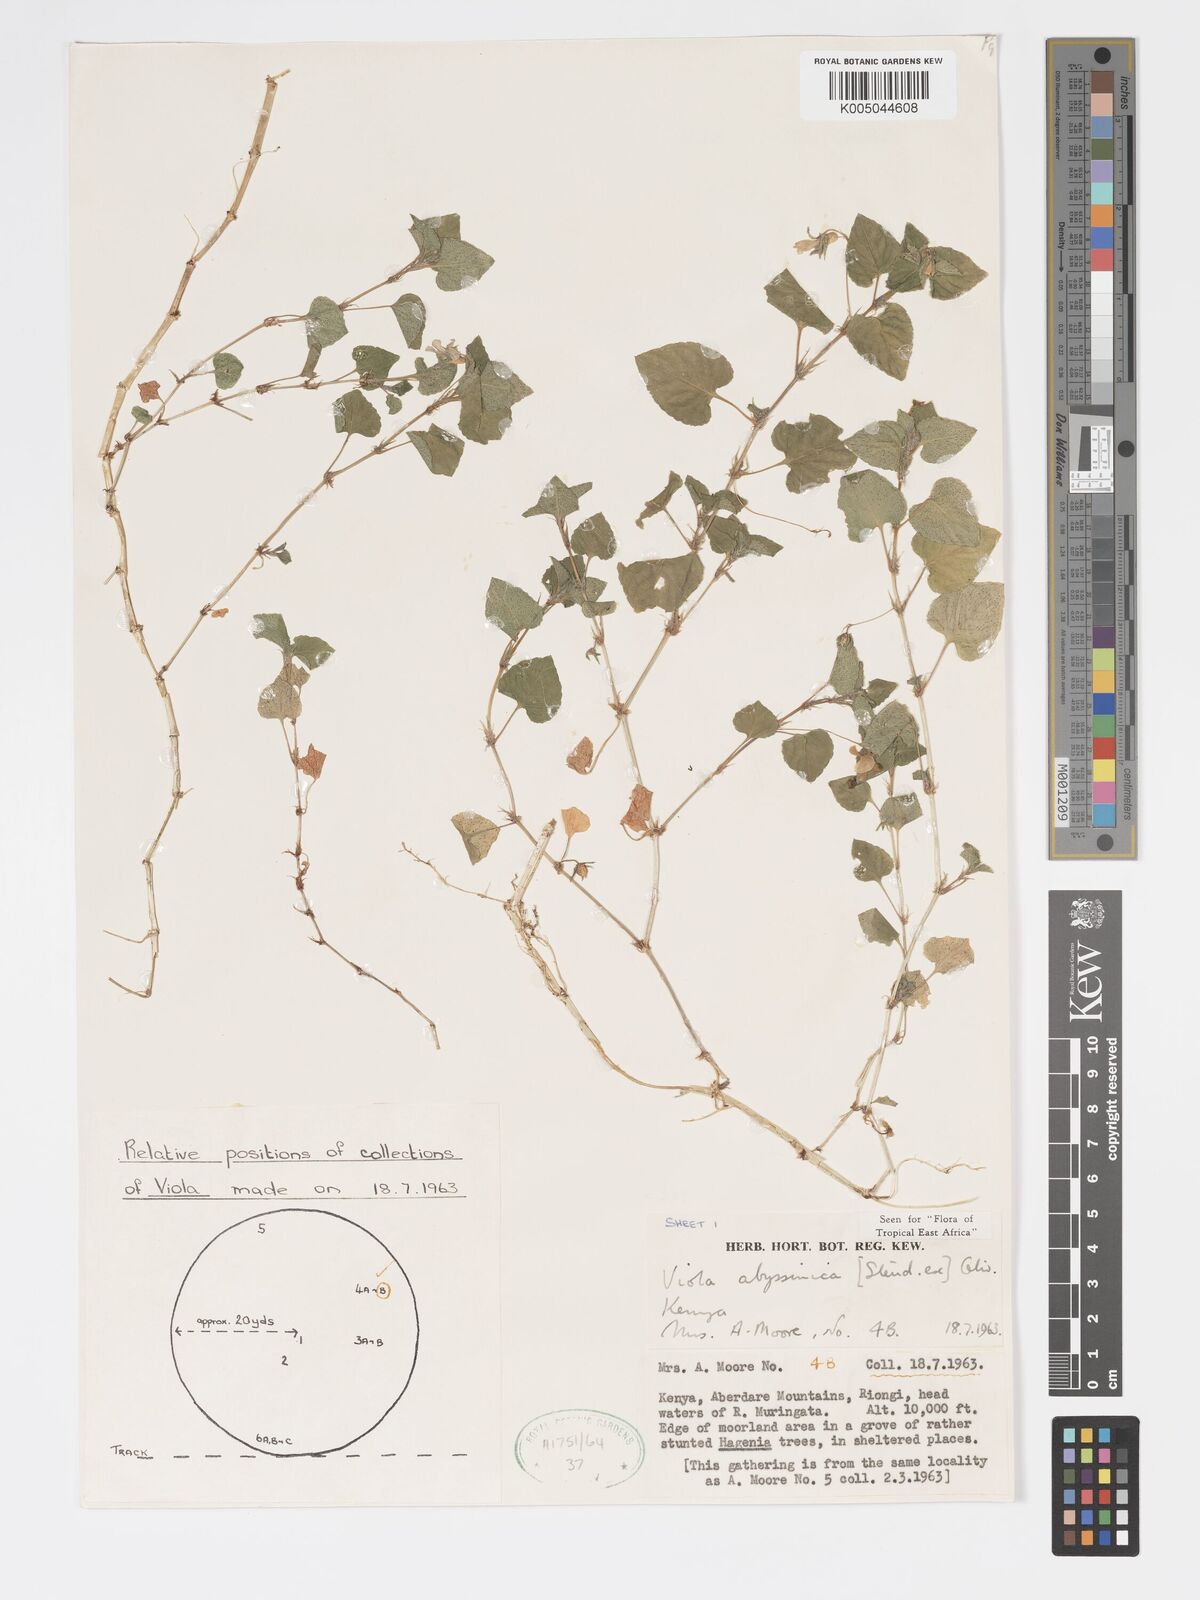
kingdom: Plantae
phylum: Tracheophyta
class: Magnoliopsida
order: Malpighiales
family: Violaceae
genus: Viola
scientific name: Viola abyssinica
